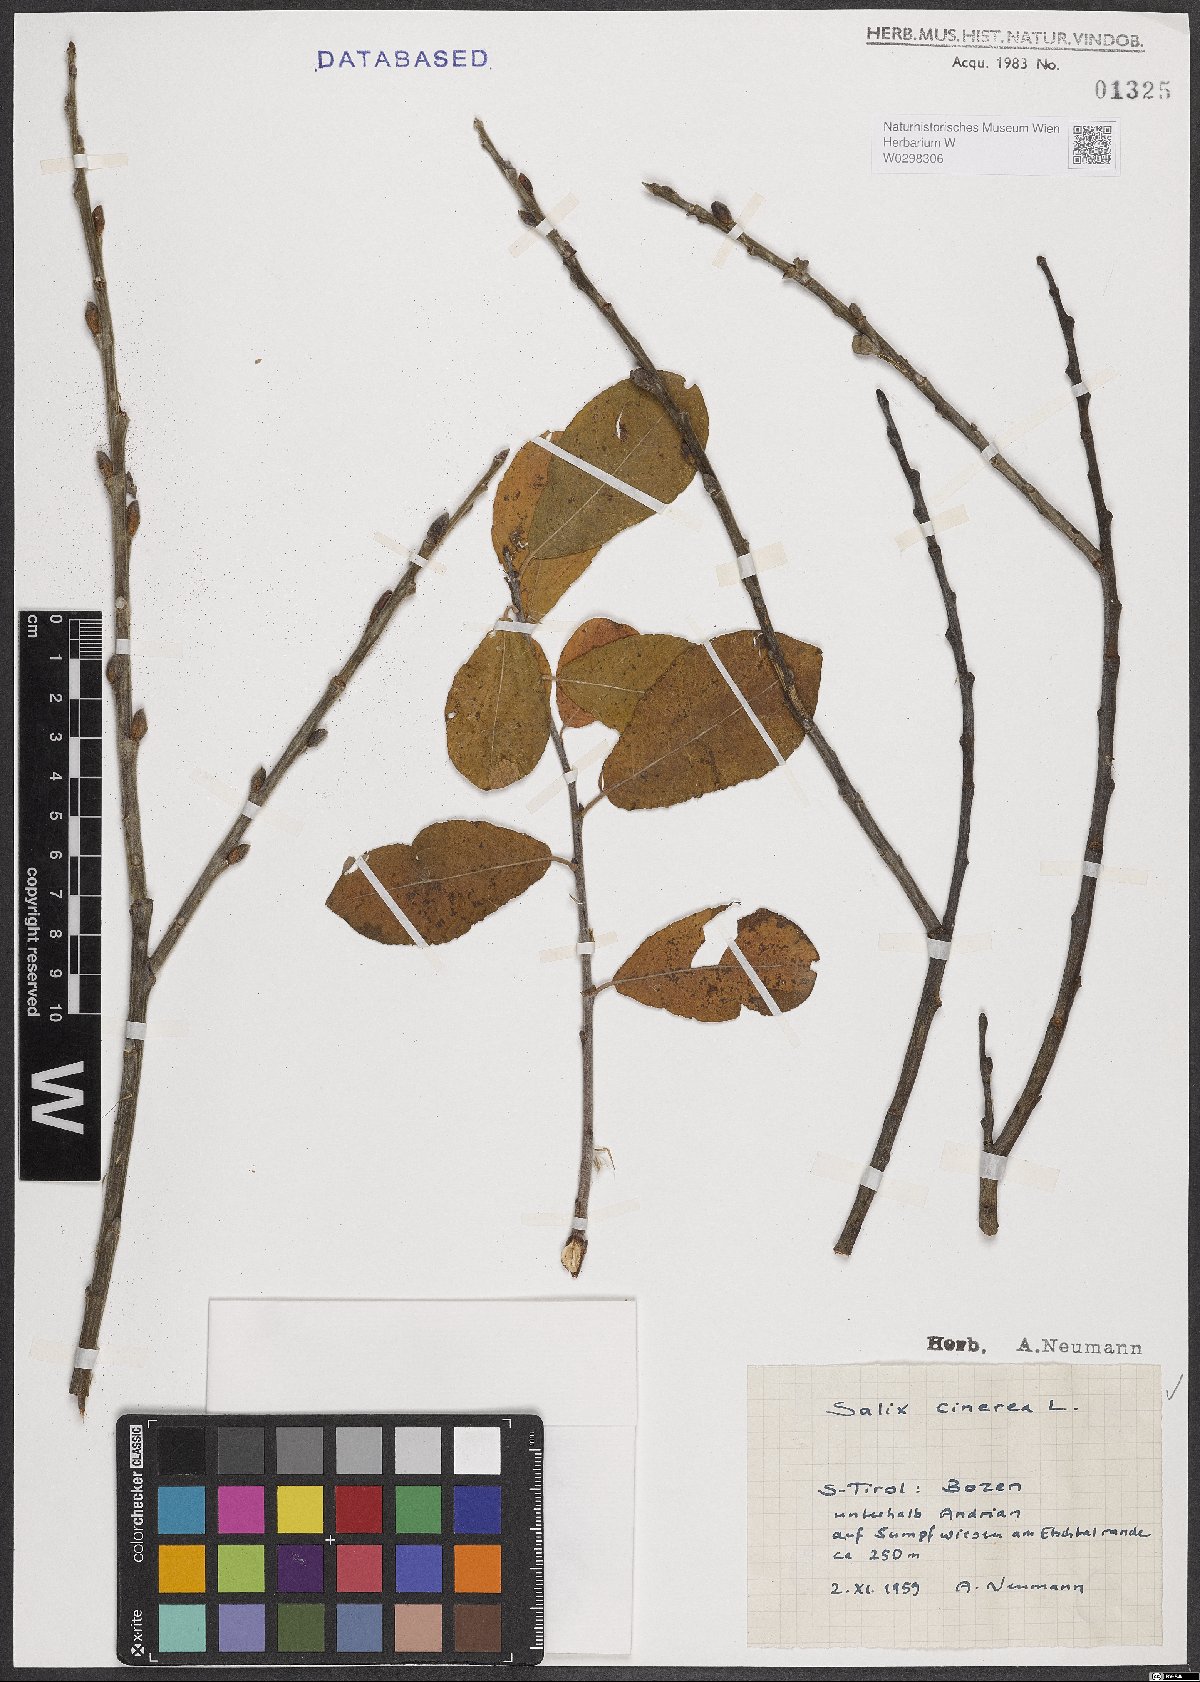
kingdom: Plantae
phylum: Tracheophyta
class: Magnoliopsida
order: Malpighiales
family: Salicaceae
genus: Salix
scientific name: Salix cinerea
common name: Common sallow
